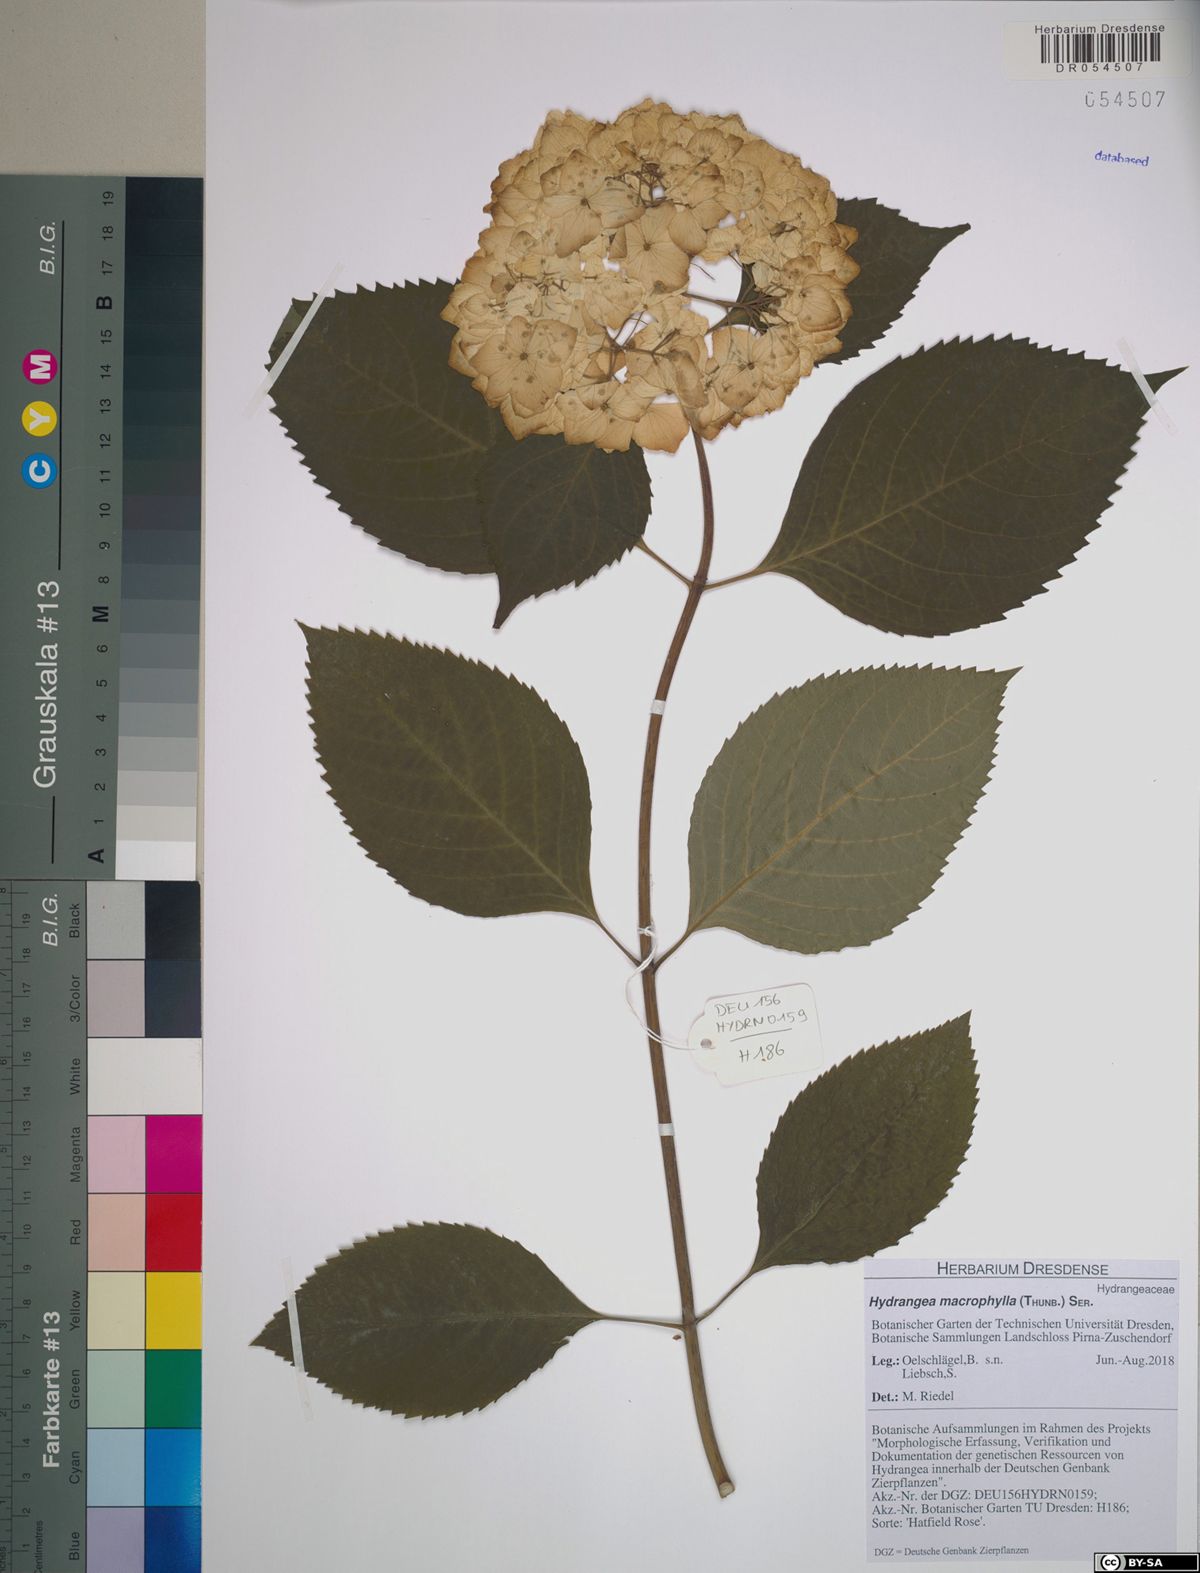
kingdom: Plantae
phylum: Tracheophyta
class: Magnoliopsida
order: Cornales
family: Hydrangeaceae
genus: Hydrangea
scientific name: Hydrangea macrophylla
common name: Hydrangea
